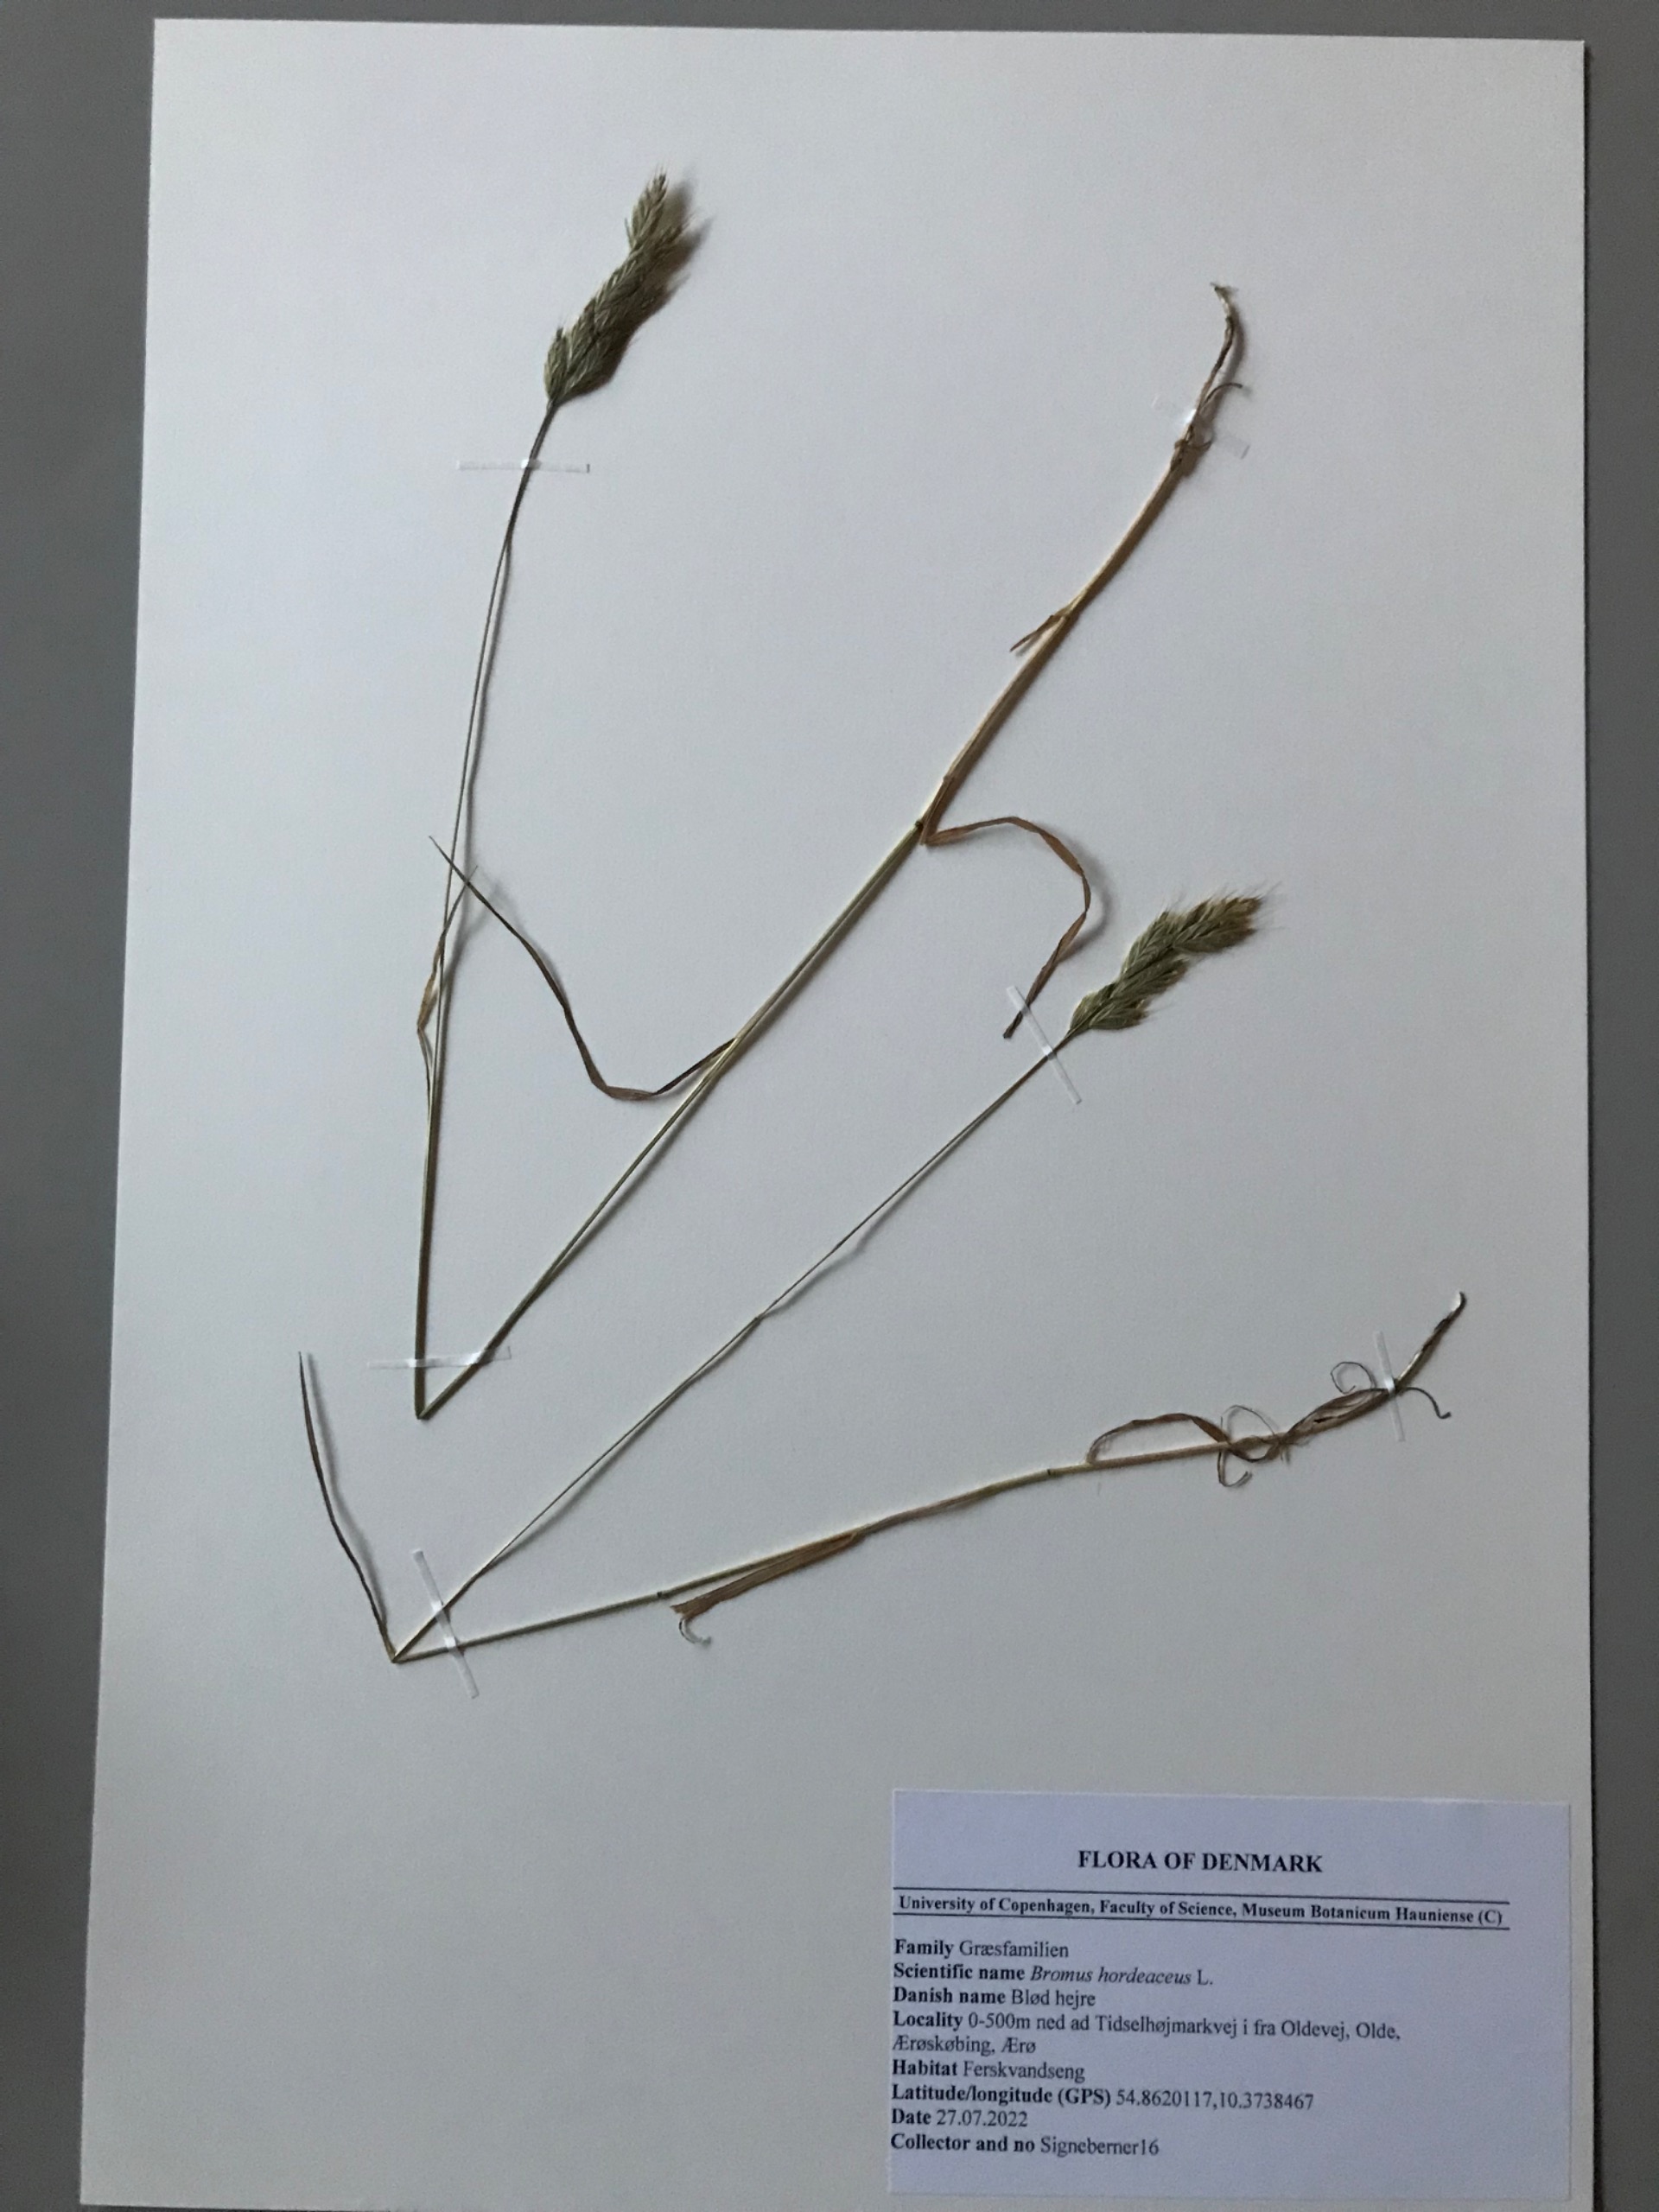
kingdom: Plantae
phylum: Tracheophyta
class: Liliopsida
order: Poales
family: Poaceae
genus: Bromus
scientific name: Bromus hordeaceus
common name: Blød hejre
